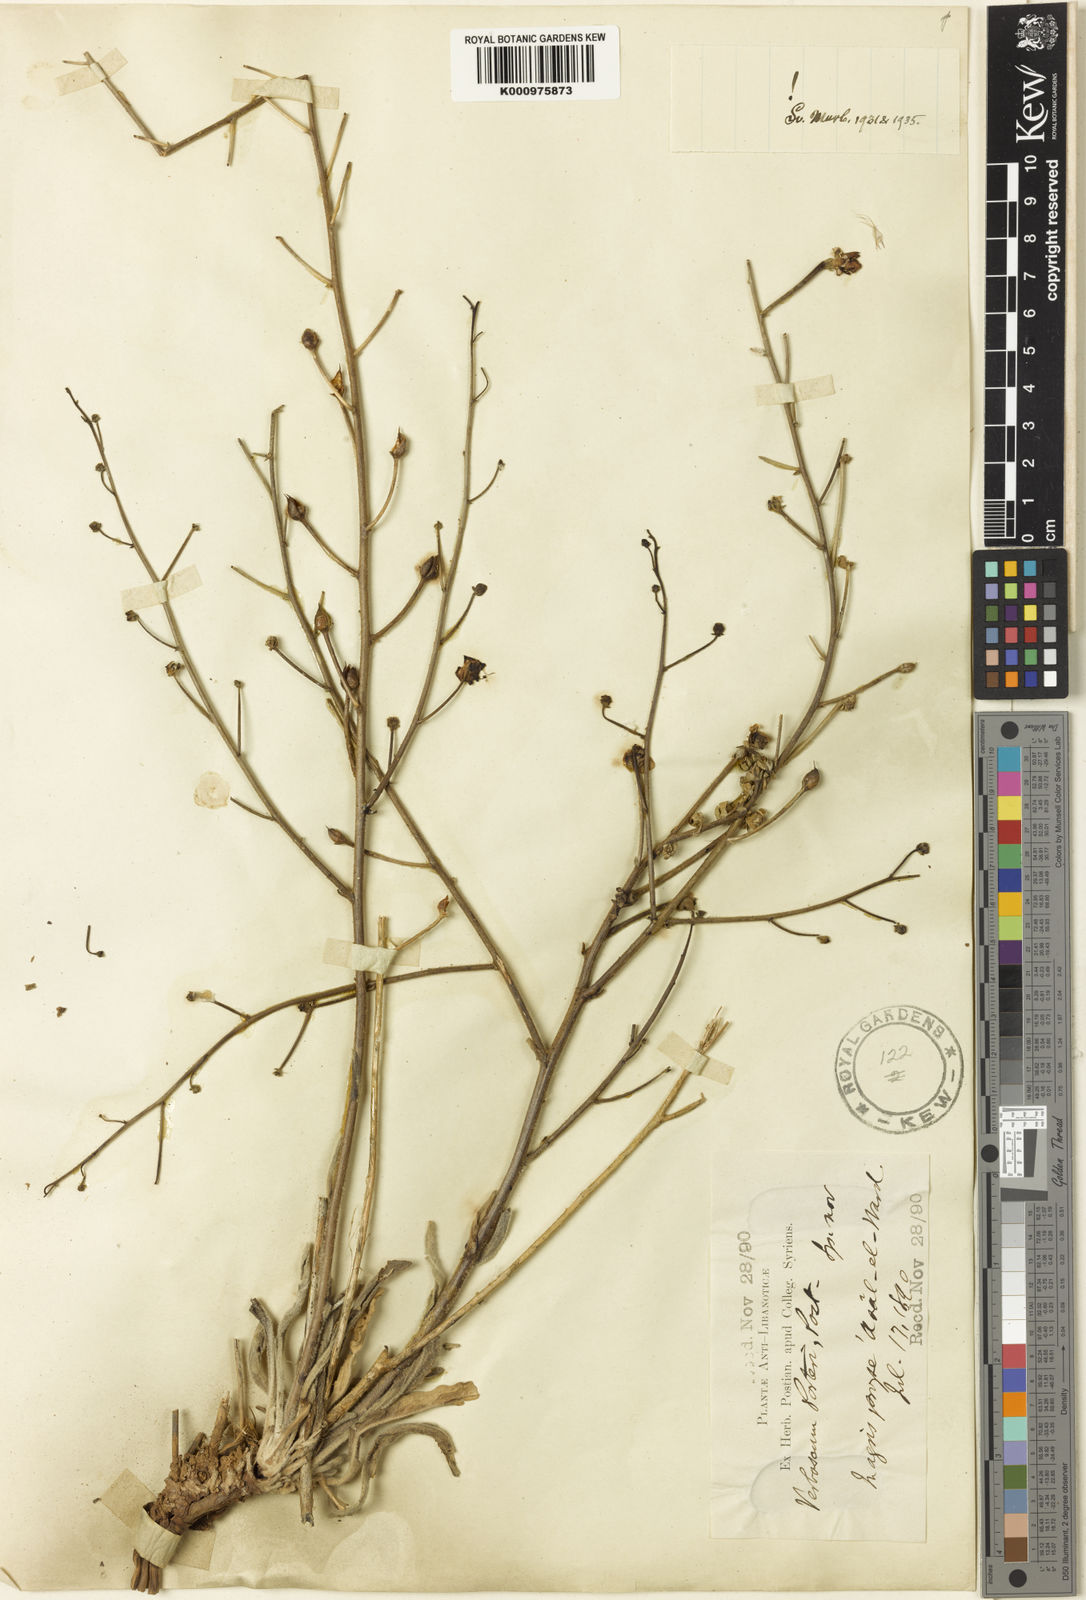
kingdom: Plantae
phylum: Tracheophyta
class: Magnoliopsida
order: Lamiales
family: Scrophulariaceae
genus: Verbascum
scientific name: Verbascum porteri
